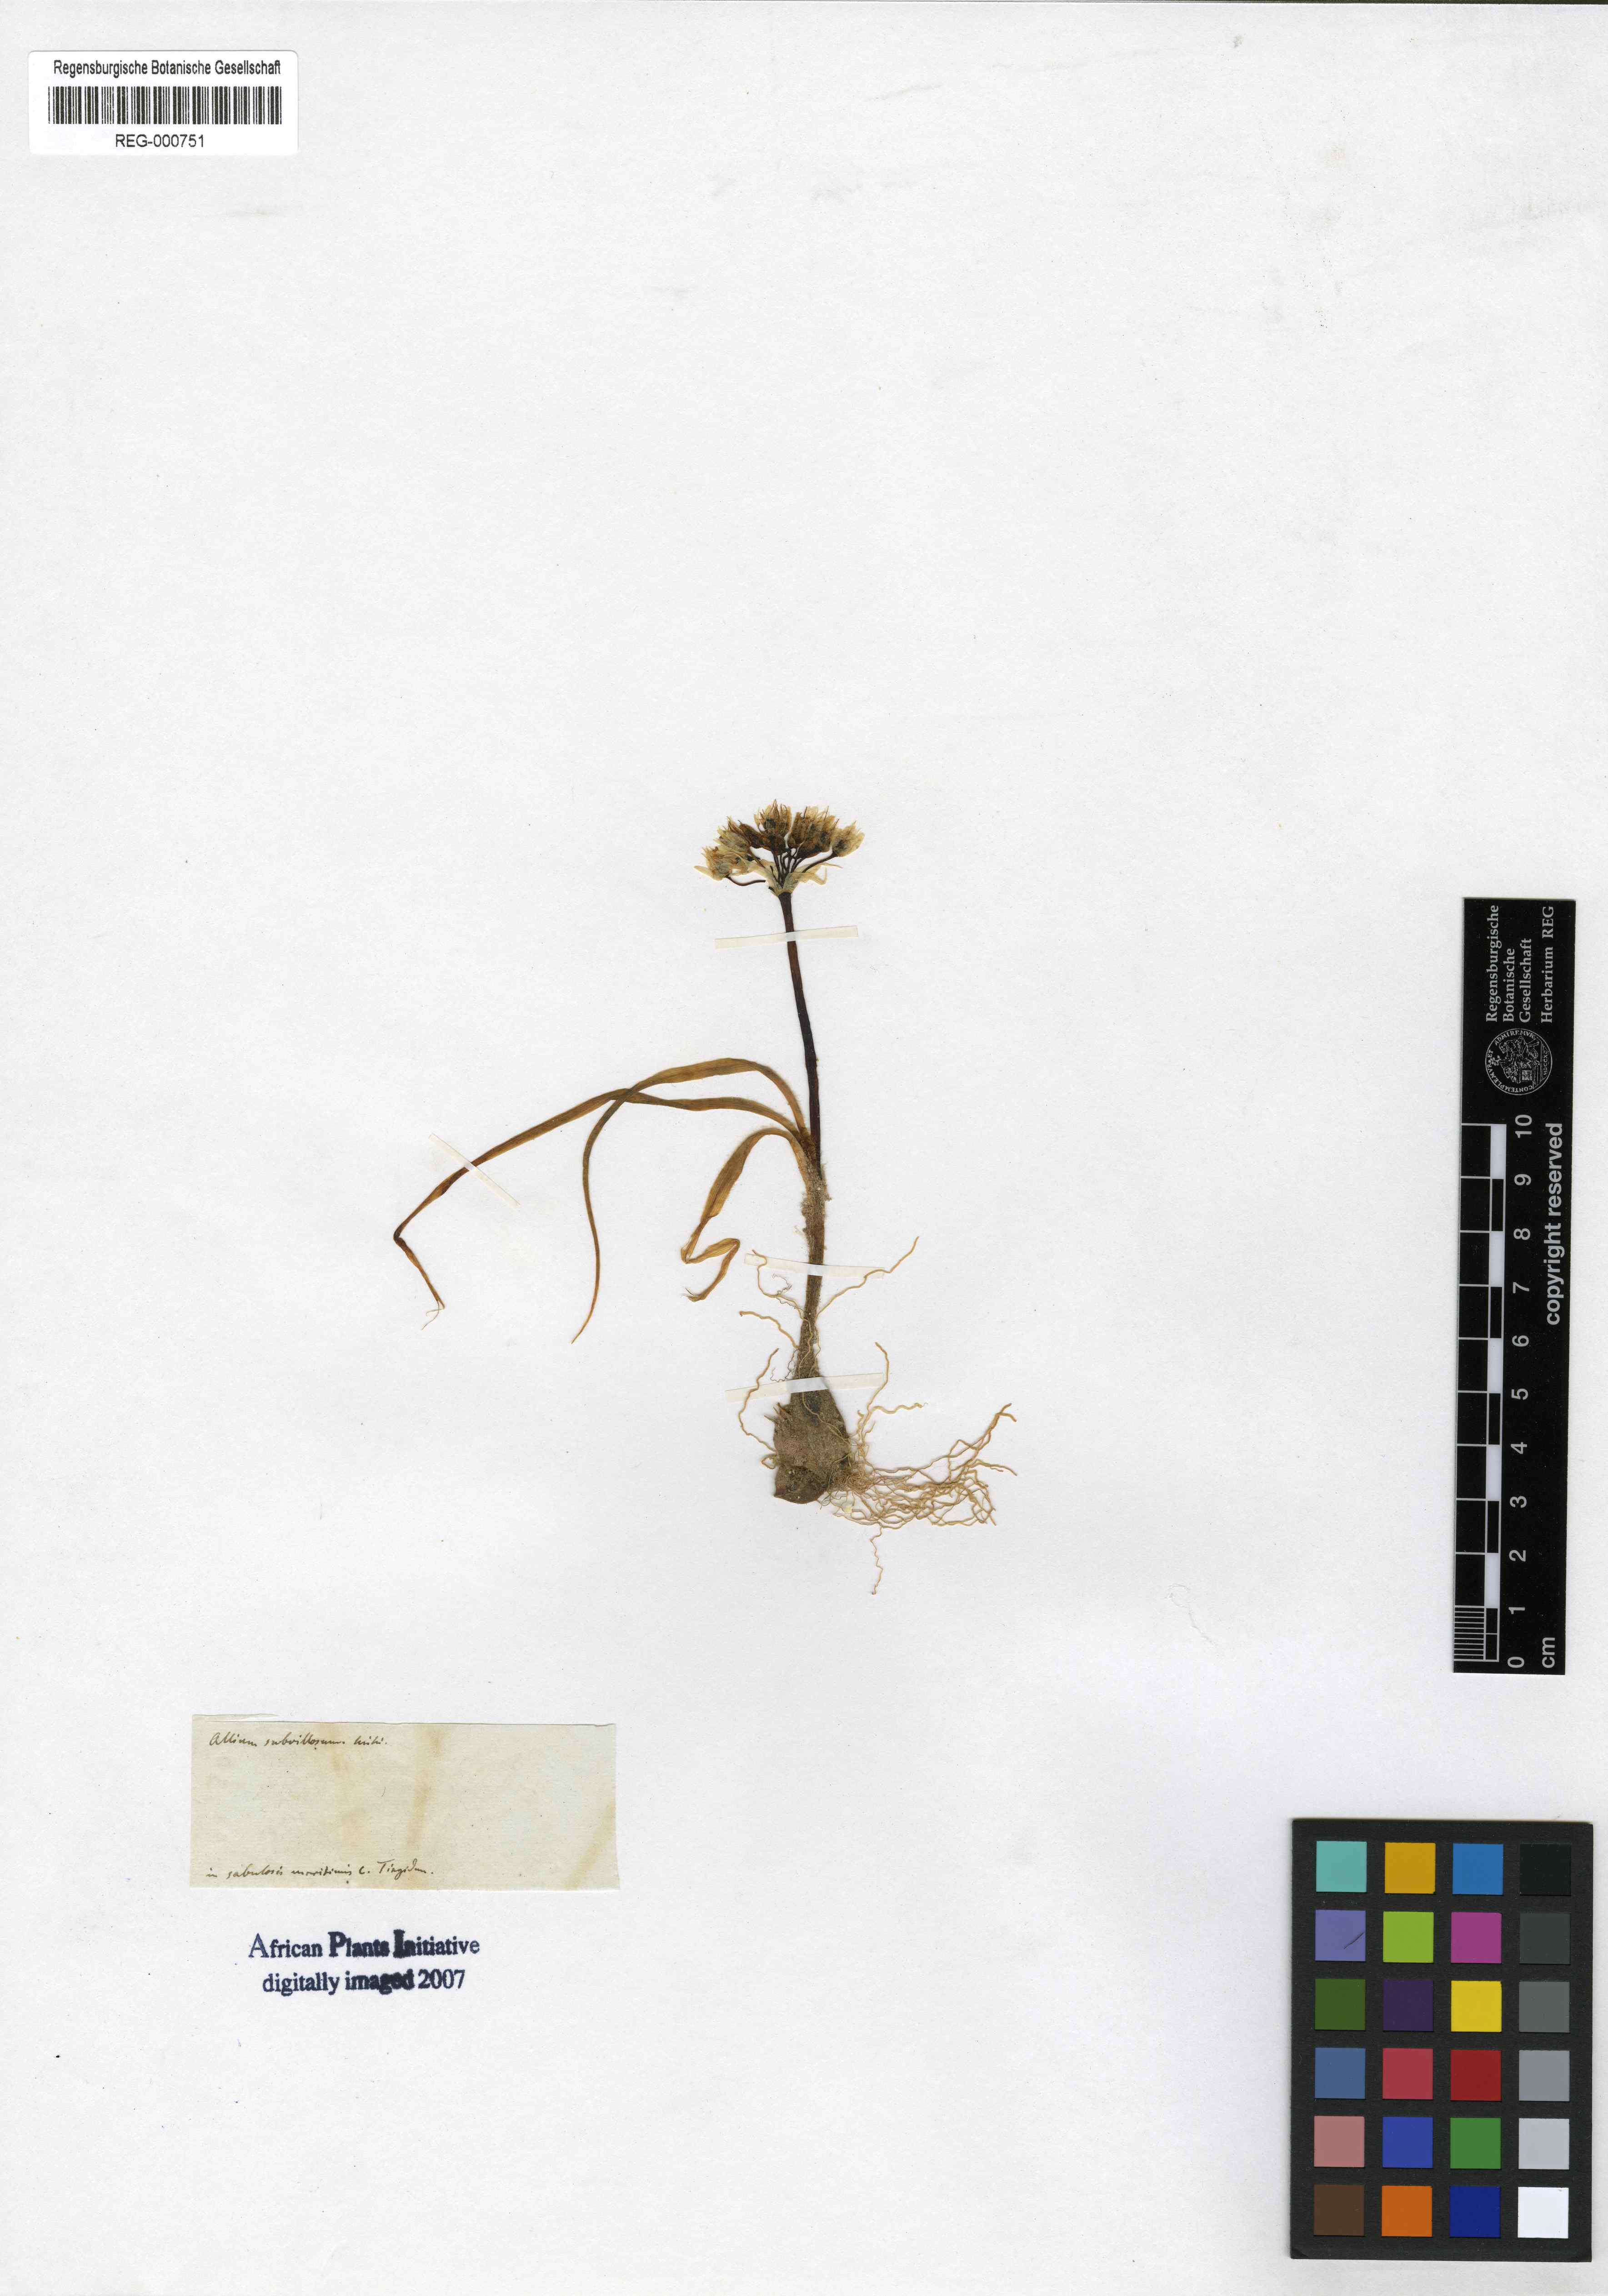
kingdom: Plantae
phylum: Tracheophyta
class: Liliopsida
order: Asparagales
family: Amaryllidaceae
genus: Allium
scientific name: Allium subvillosum
